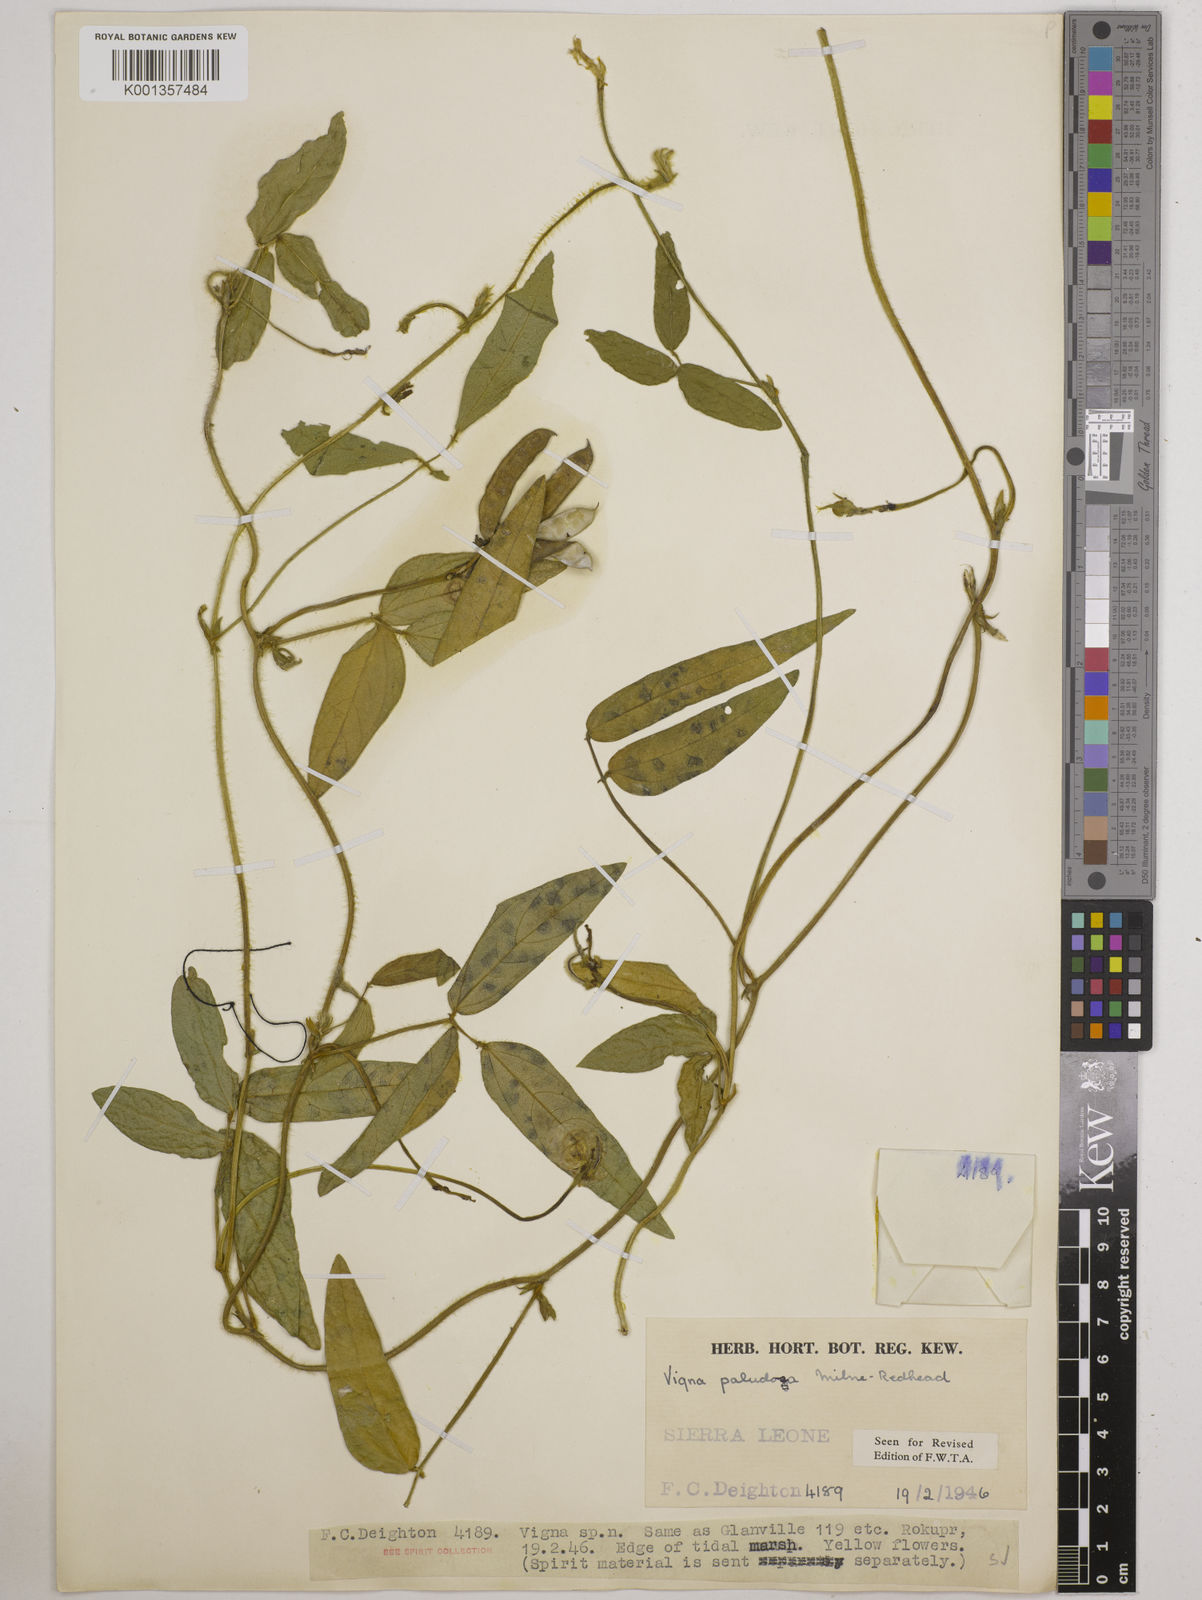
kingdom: Plantae
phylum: Tracheophyta
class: Magnoliopsida
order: Fabales
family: Fabaceae
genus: Vigna
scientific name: Vigna longifolia
